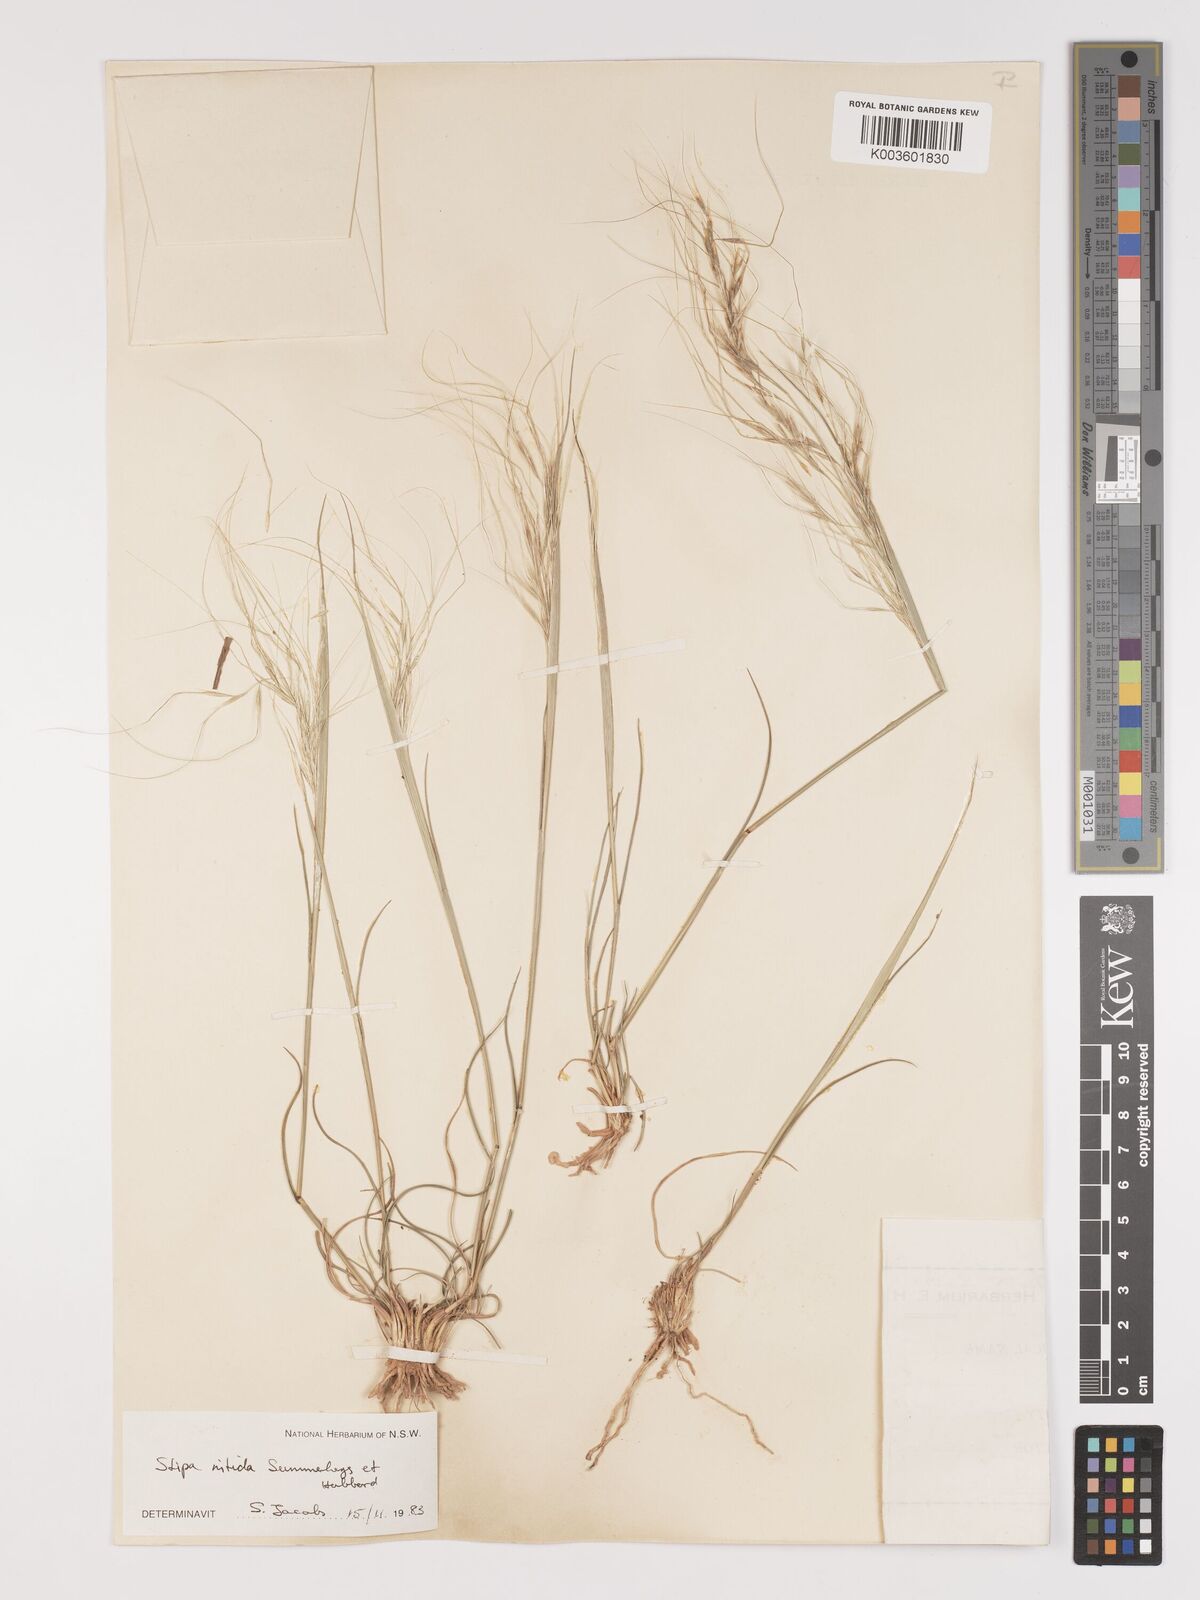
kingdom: Plantae
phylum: Tracheophyta
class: Liliopsida
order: Poales
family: Poaceae
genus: Austrostipa
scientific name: Austrostipa nitida
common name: Balcarra grass
